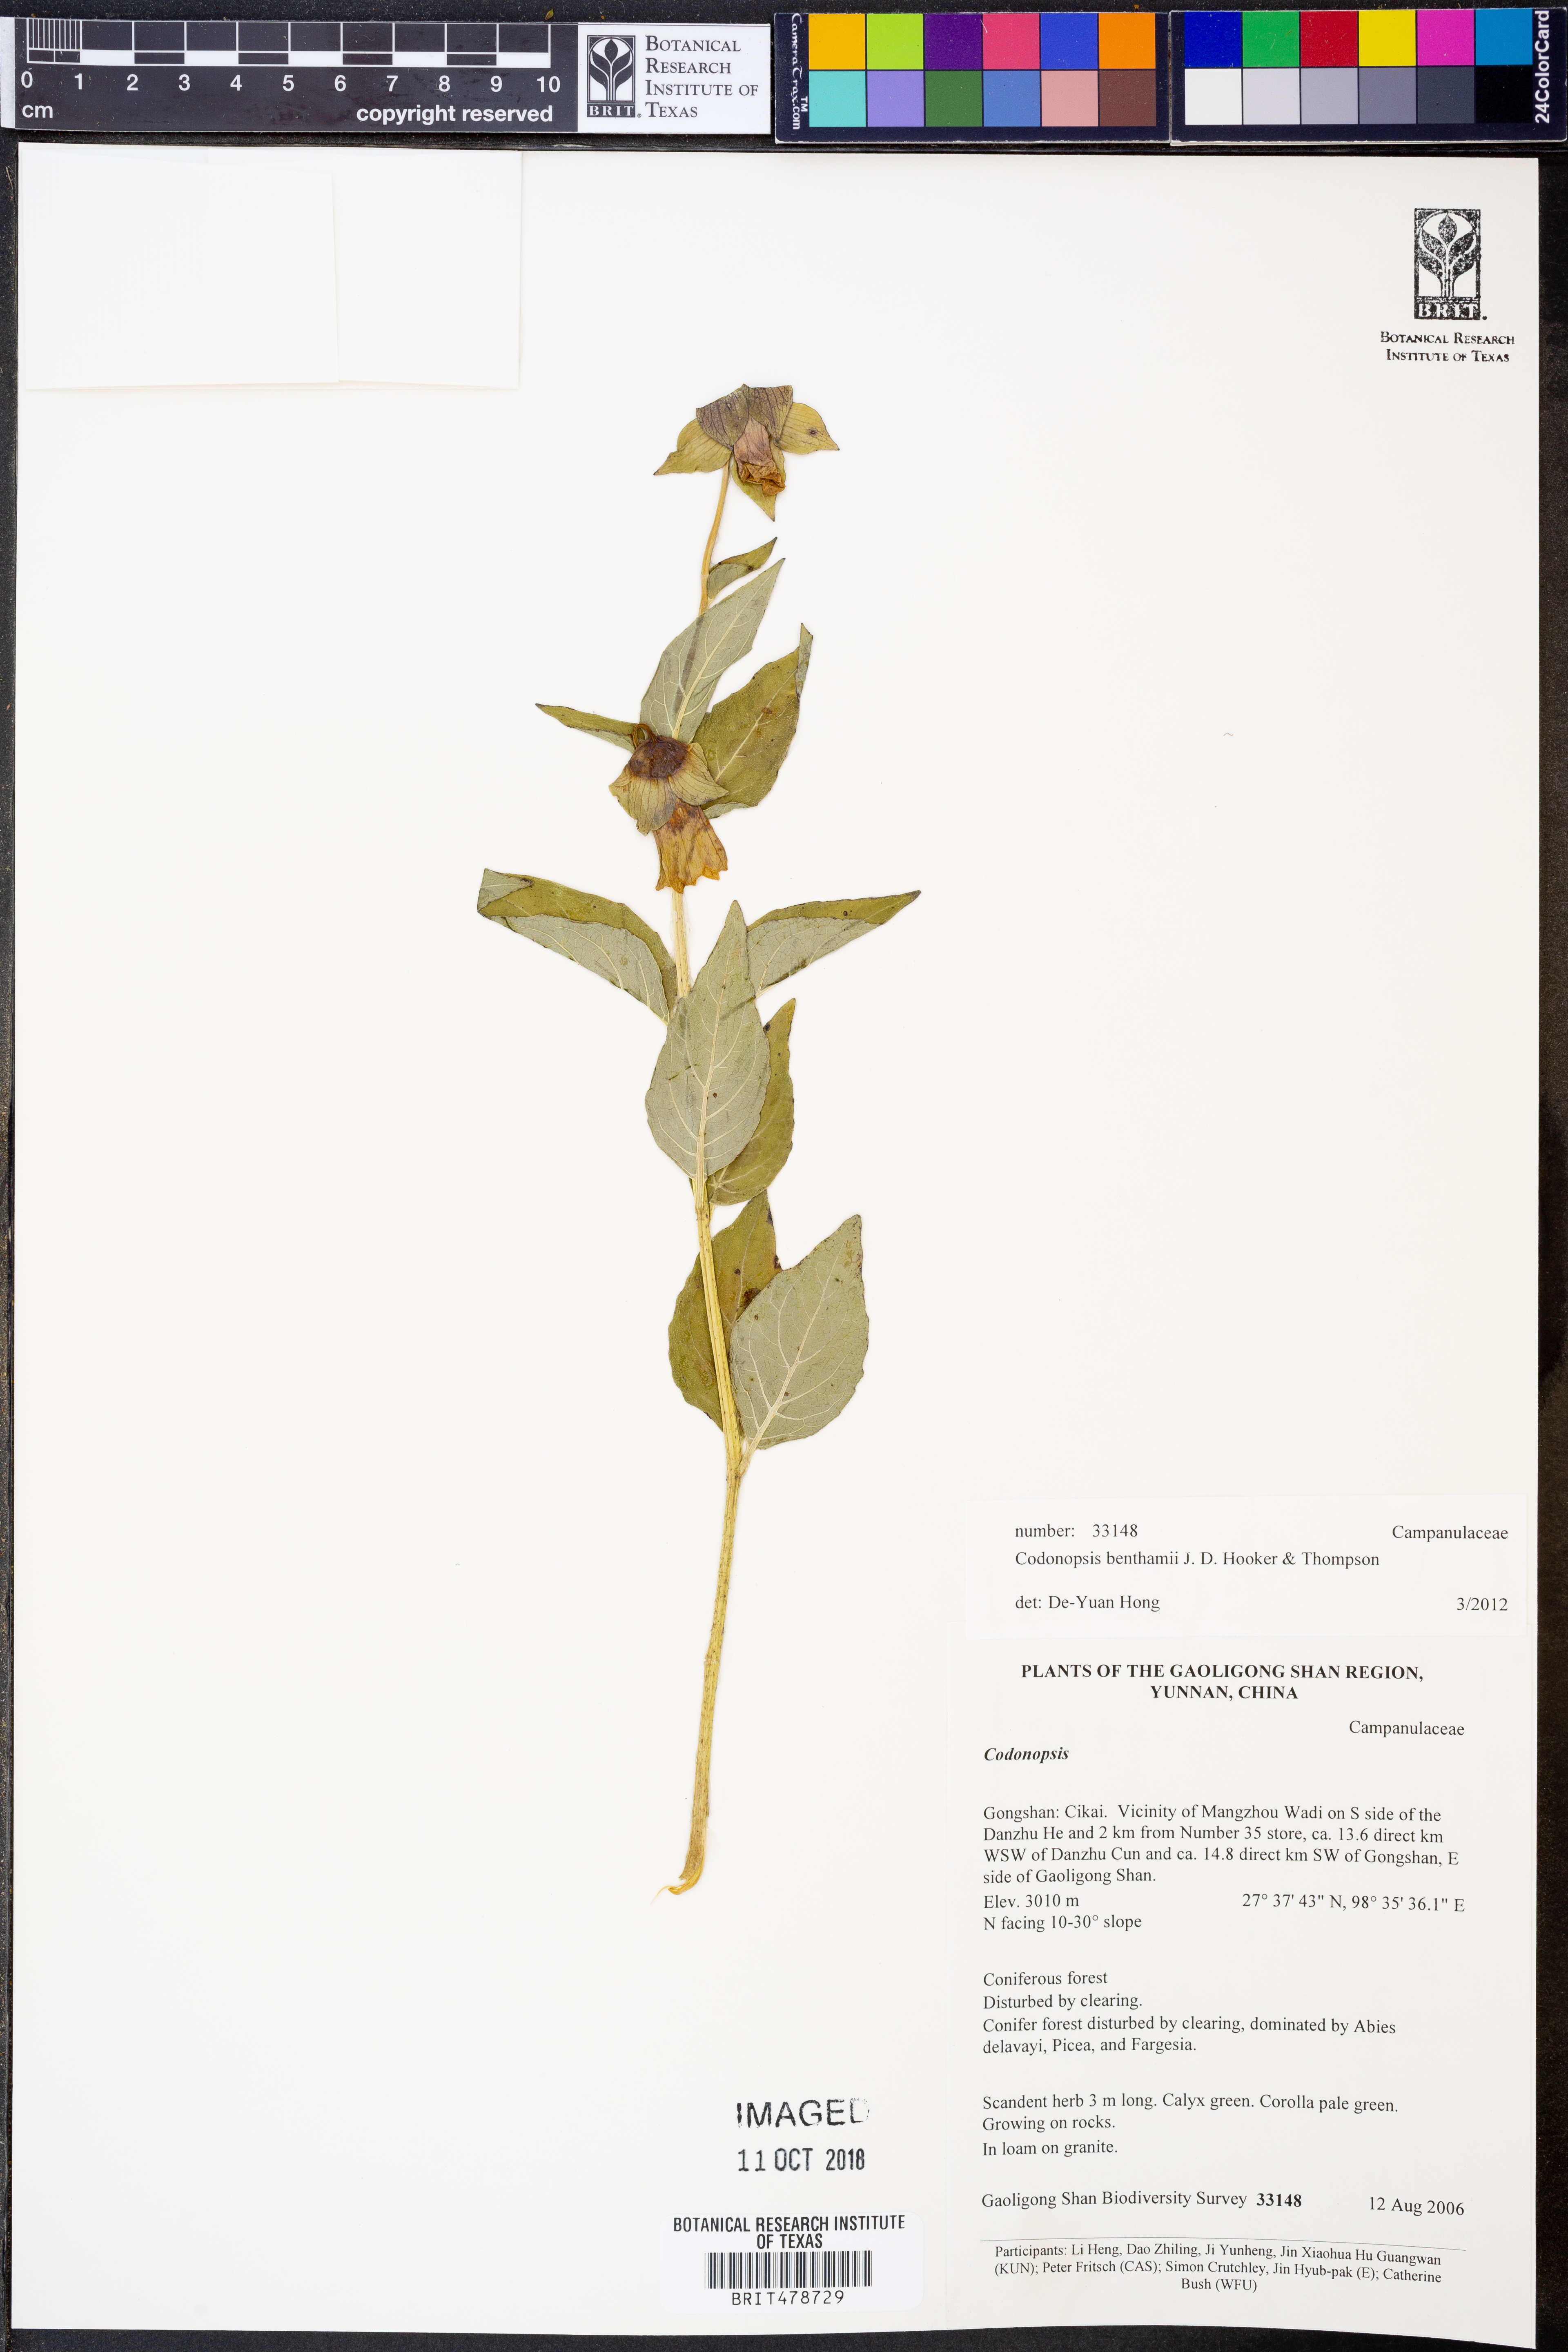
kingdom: Plantae
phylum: Tracheophyta
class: Magnoliopsida
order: Asterales
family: Campanulaceae
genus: Codonopsis
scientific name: Codonopsis benthamii
